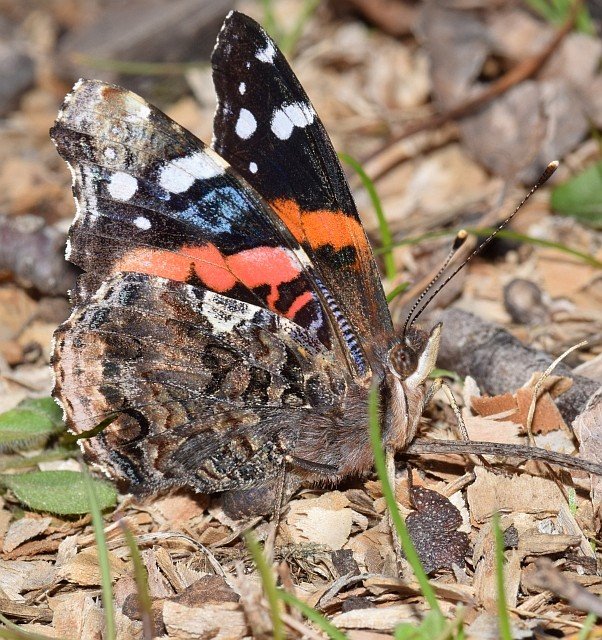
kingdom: Animalia
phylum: Arthropoda
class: Insecta
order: Lepidoptera
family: Nymphalidae
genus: Vanessa
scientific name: Vanessa atalanta
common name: Red Admiral
